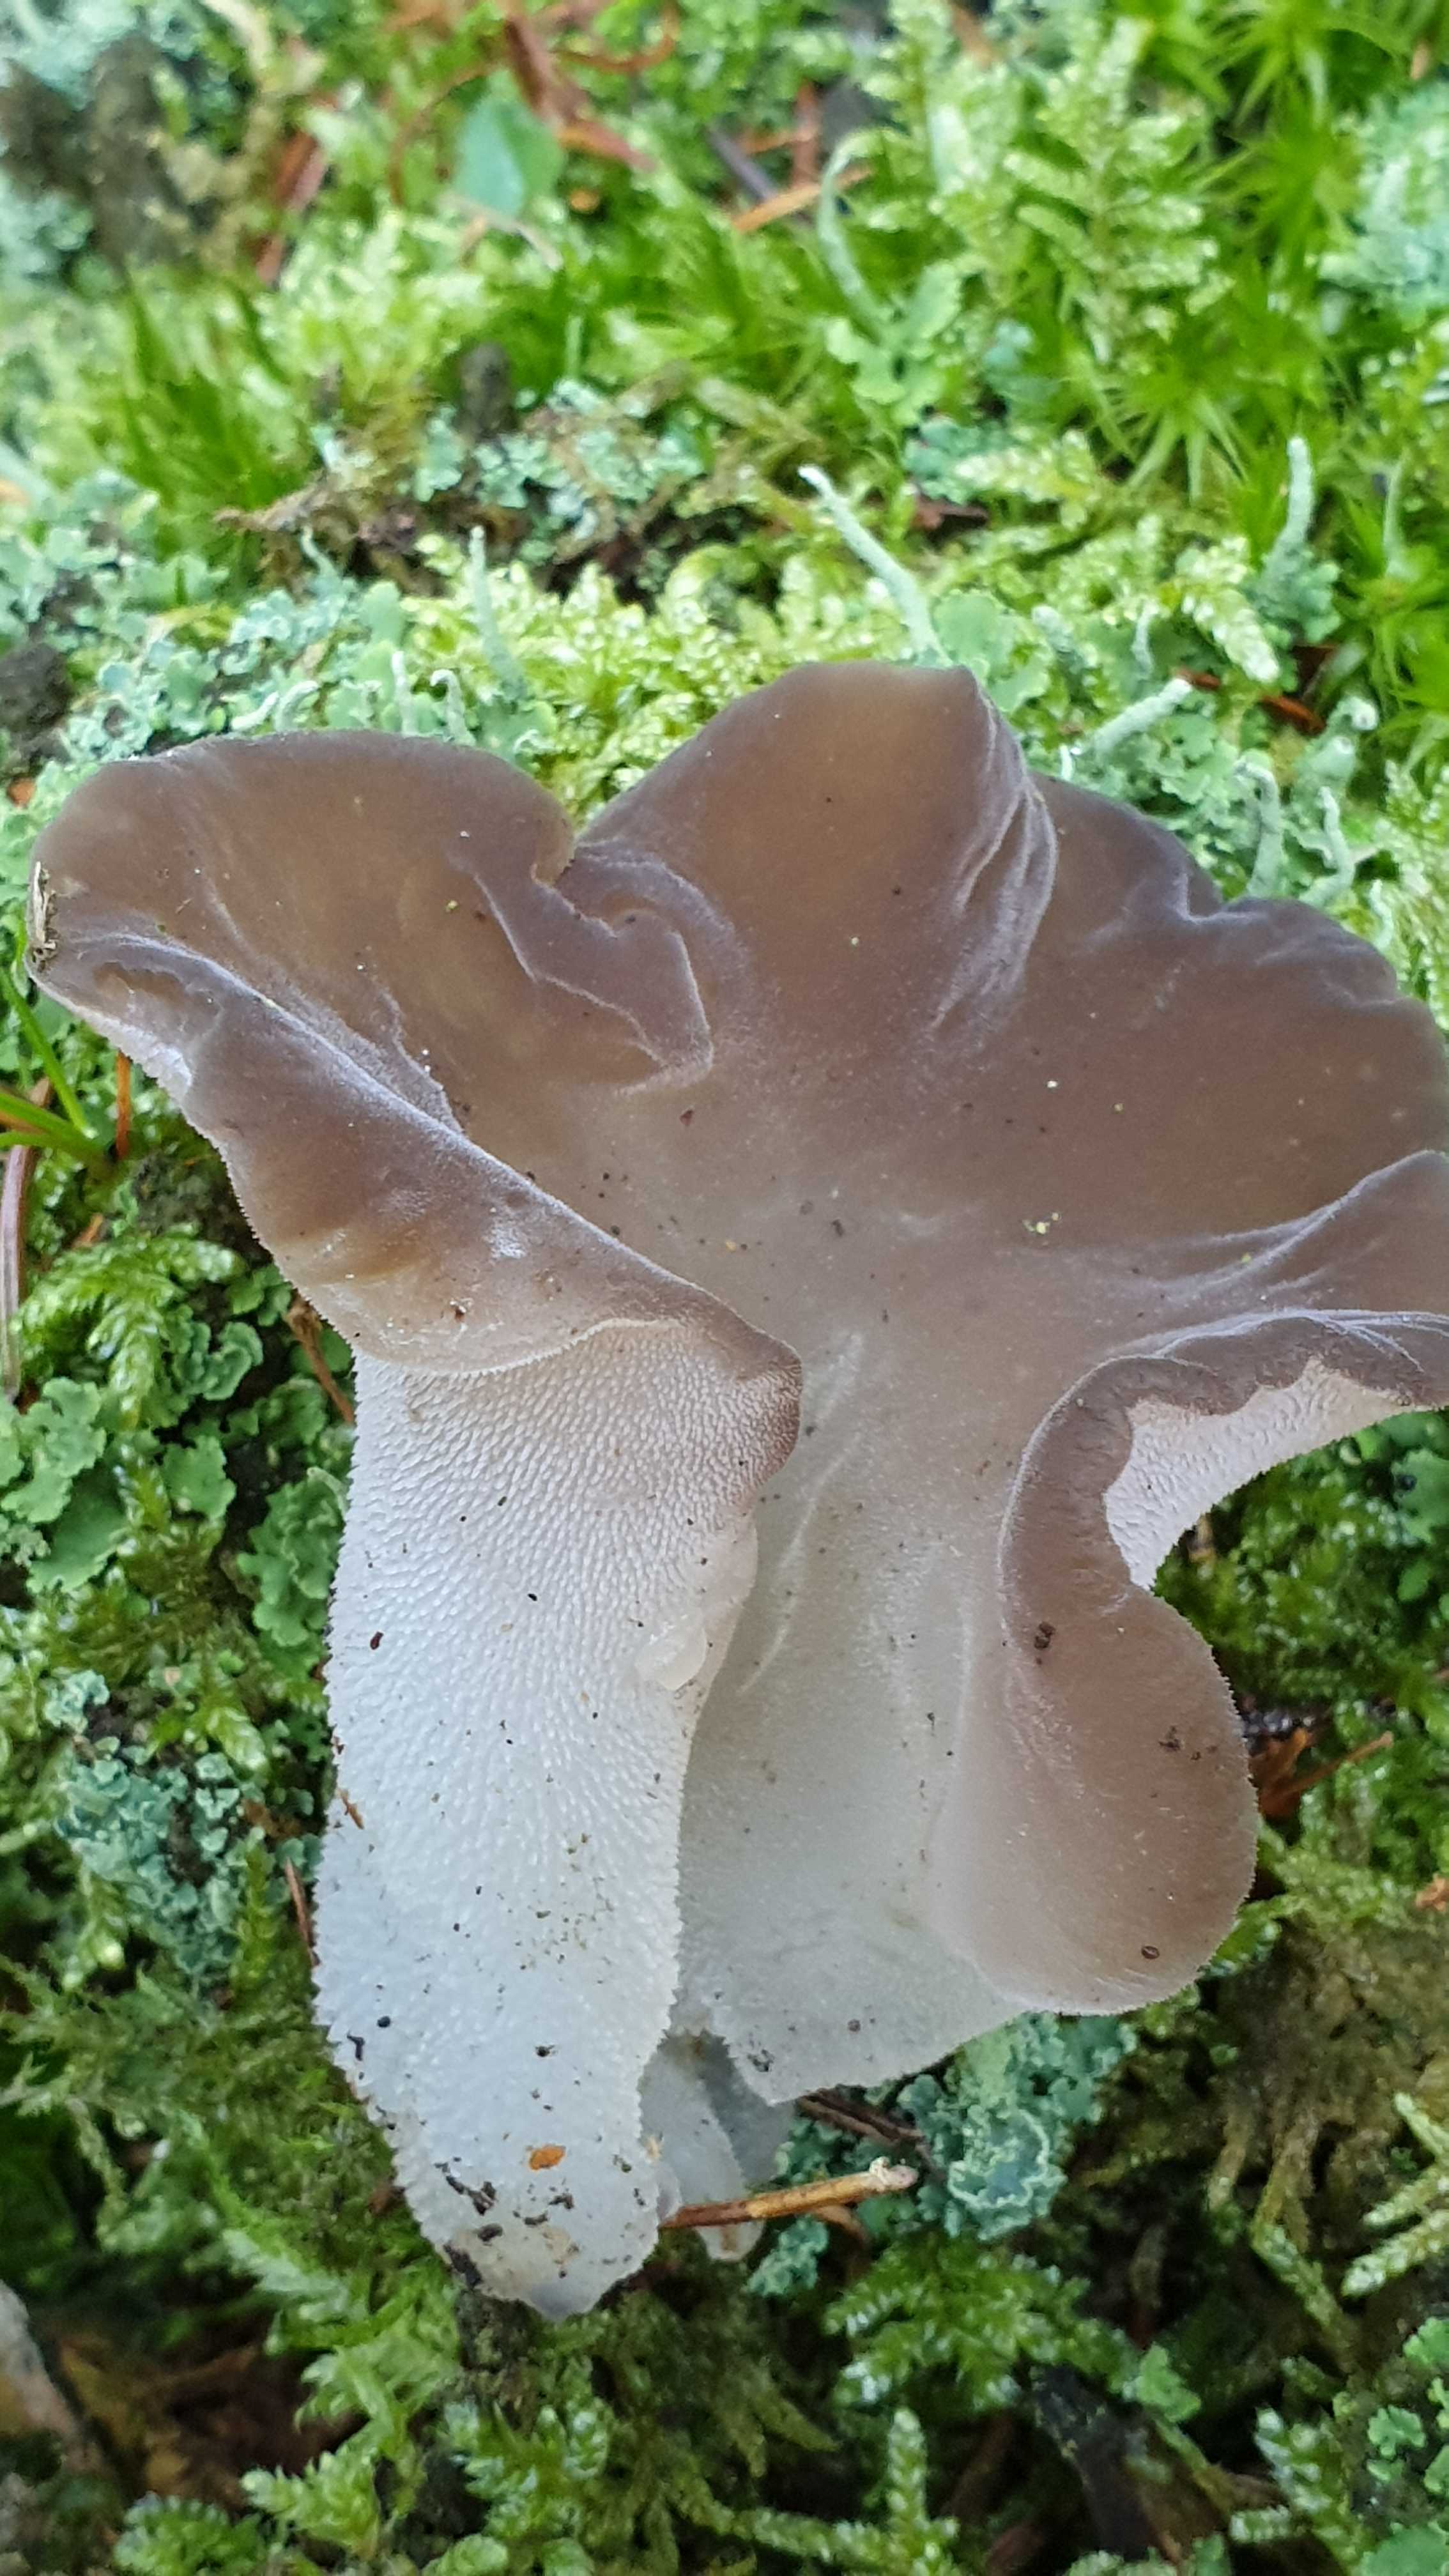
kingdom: Fungi
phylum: Basidiomycota
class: Agaricomycetes
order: Auriculariales
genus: Pseudohydnum
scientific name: Pseudohydnum gelatinosum
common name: bævretand
